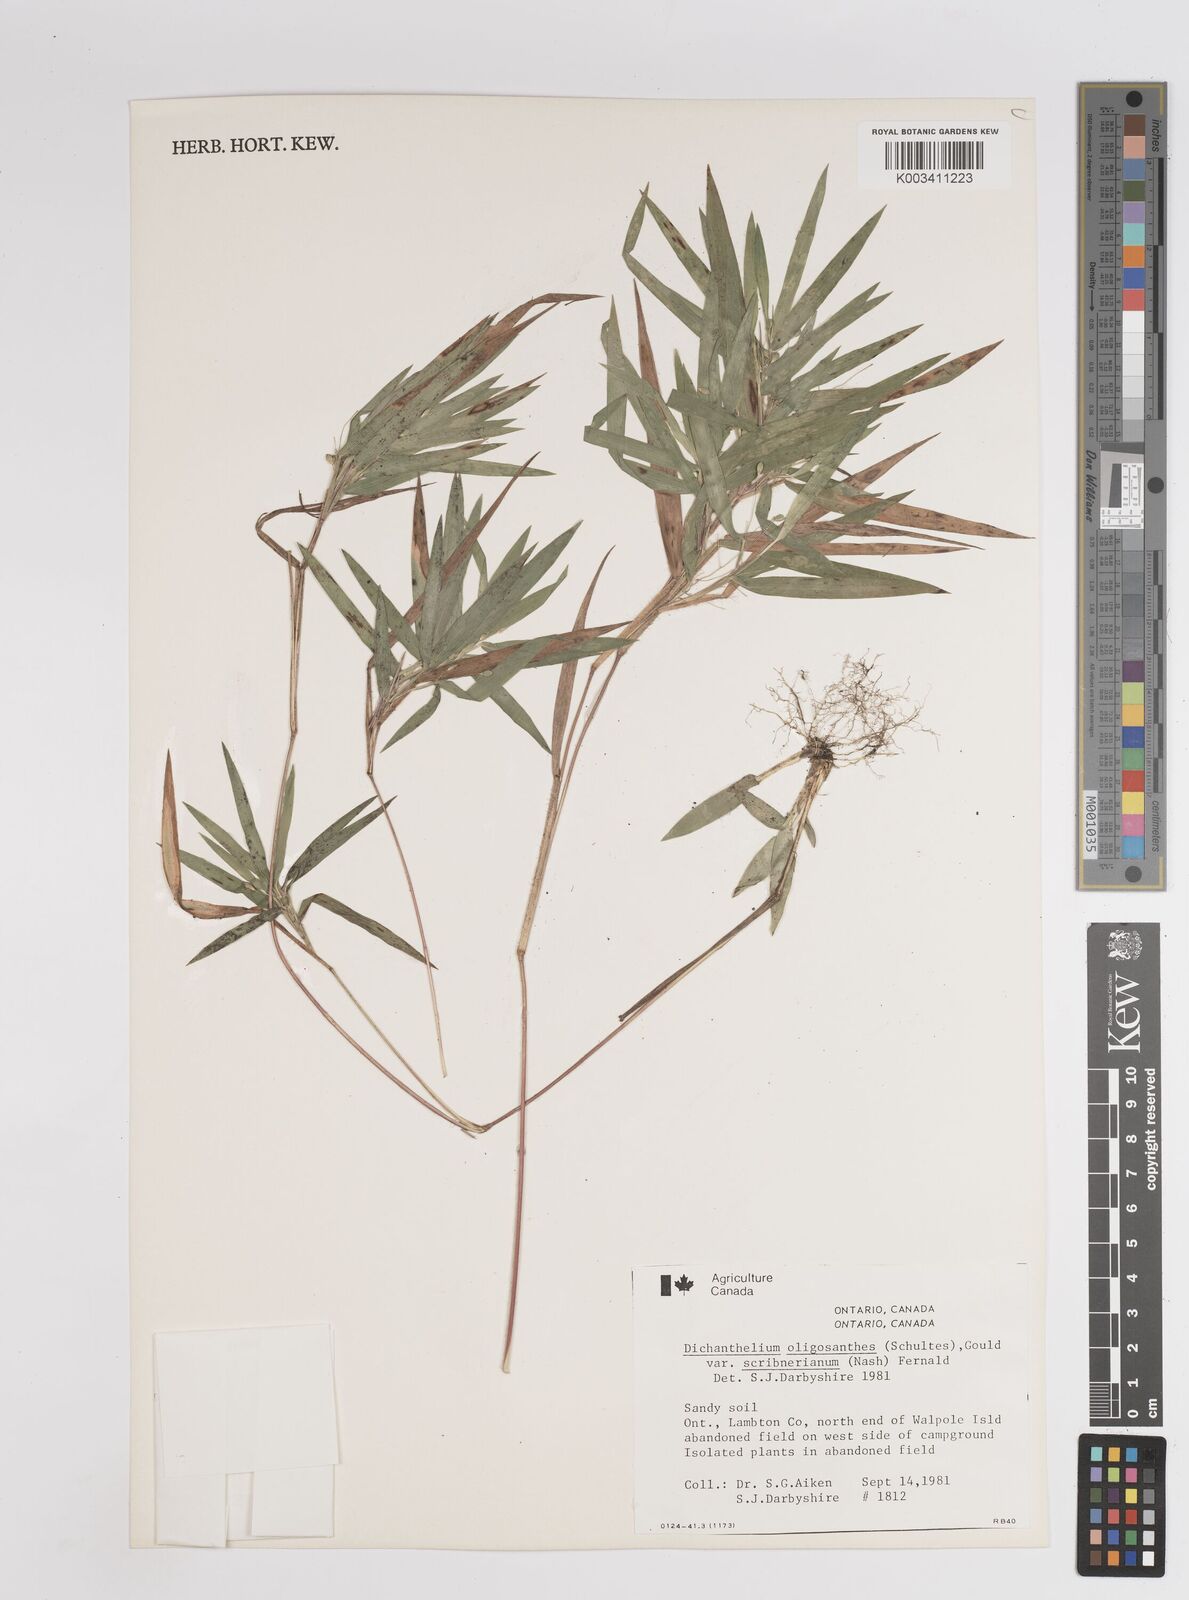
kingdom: Plantae
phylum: Tracheophyta
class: Liliopsida
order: Poales
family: Poaceae
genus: Dichanthelium
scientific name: Dichanthelium oligosanthes
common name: Few-anther obscuregrass
